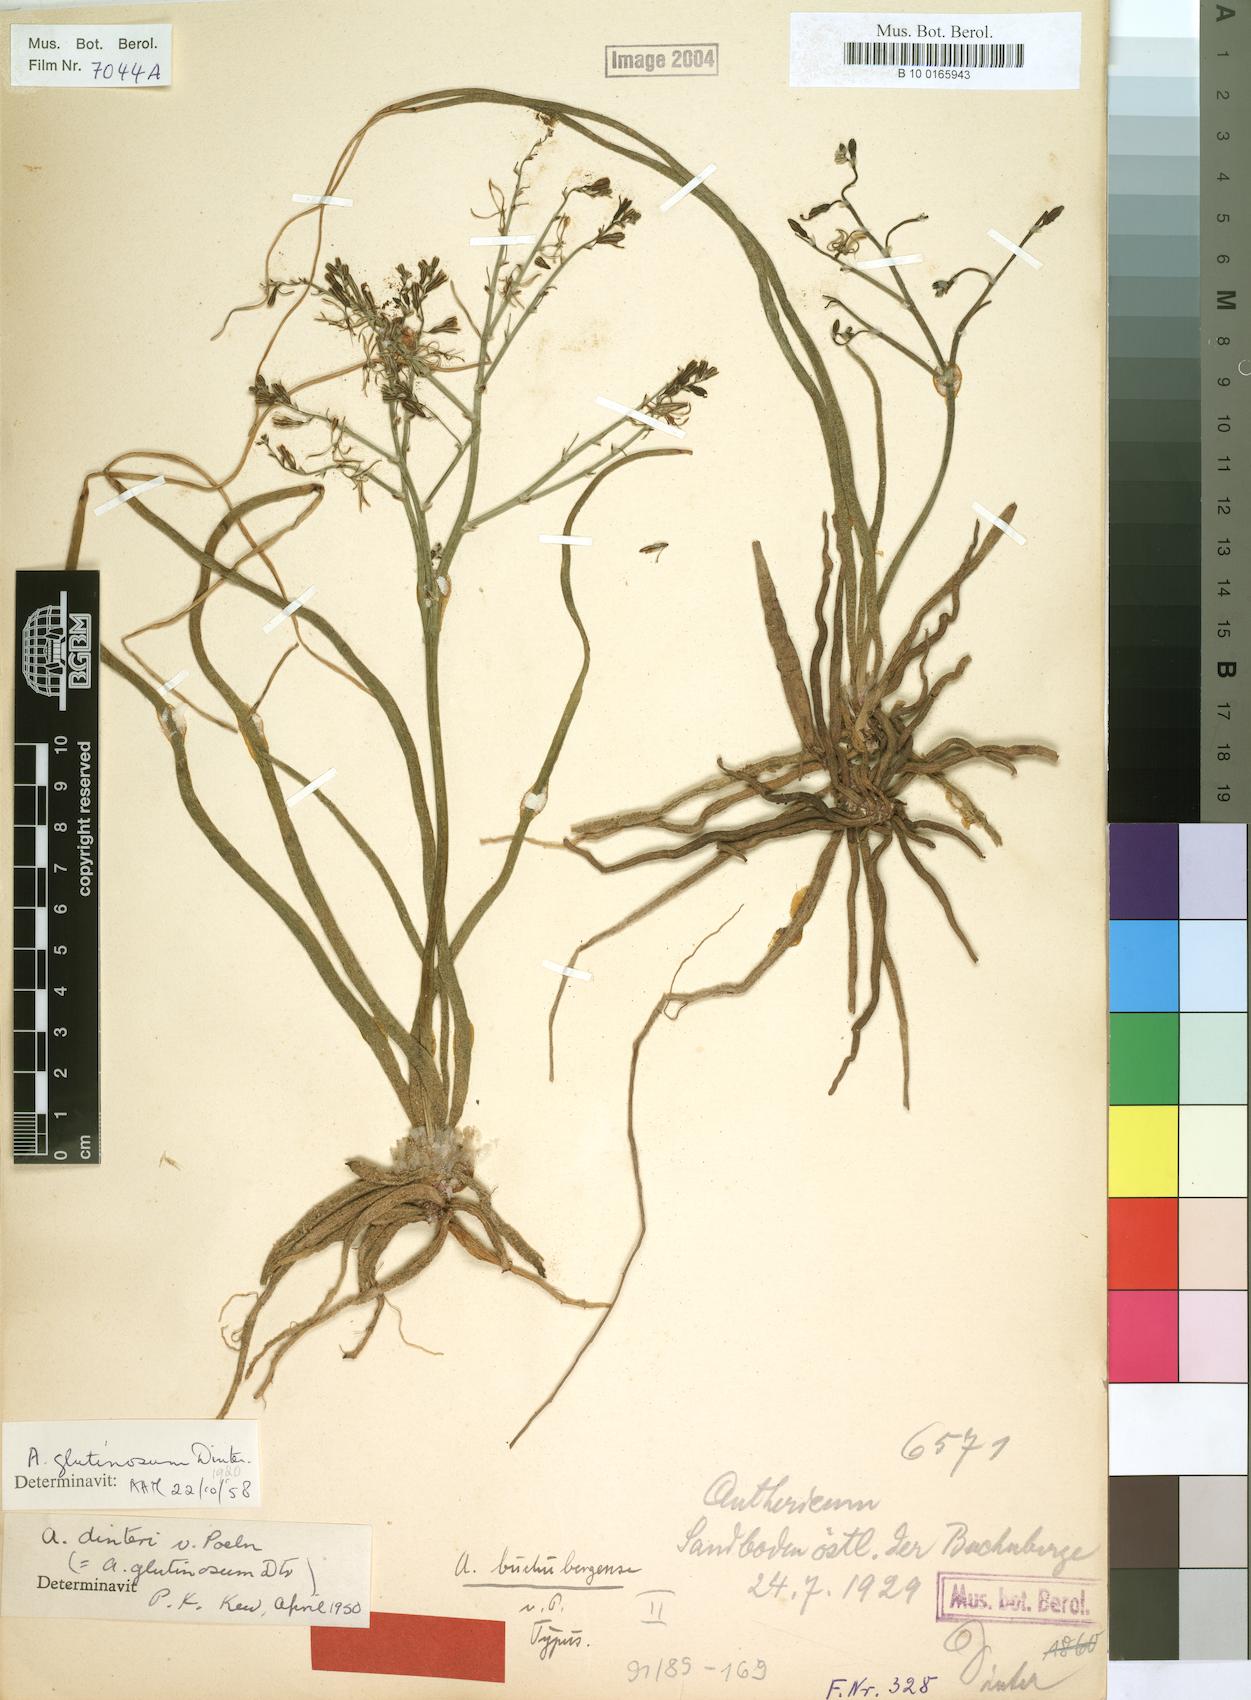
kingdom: Plantae
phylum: Tracheophyta
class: Liliopsida
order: Asparagales
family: Asphodelaceae
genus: Trachyandra
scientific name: Trachyandra laxa
